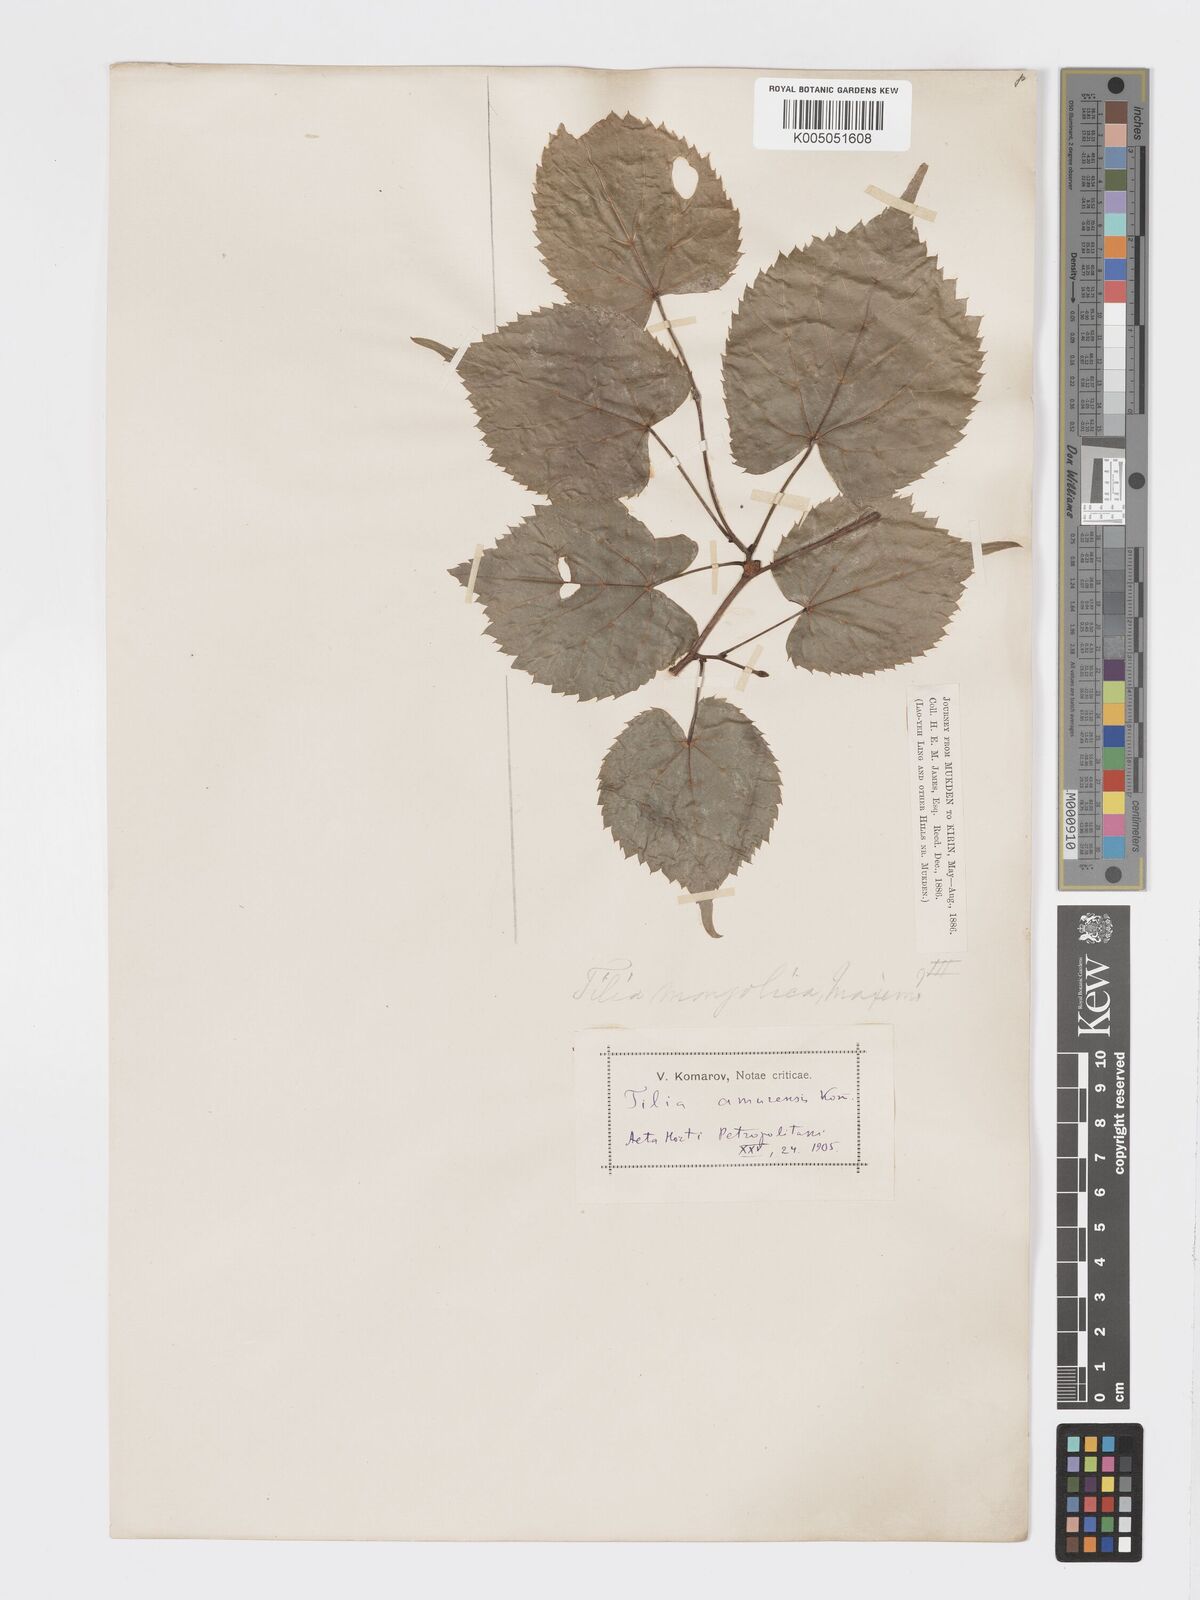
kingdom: Plantae
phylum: Tracheophyta
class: Magnoliopsida
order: Malvales
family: Malvaceae
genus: Tilia
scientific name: Tilia
